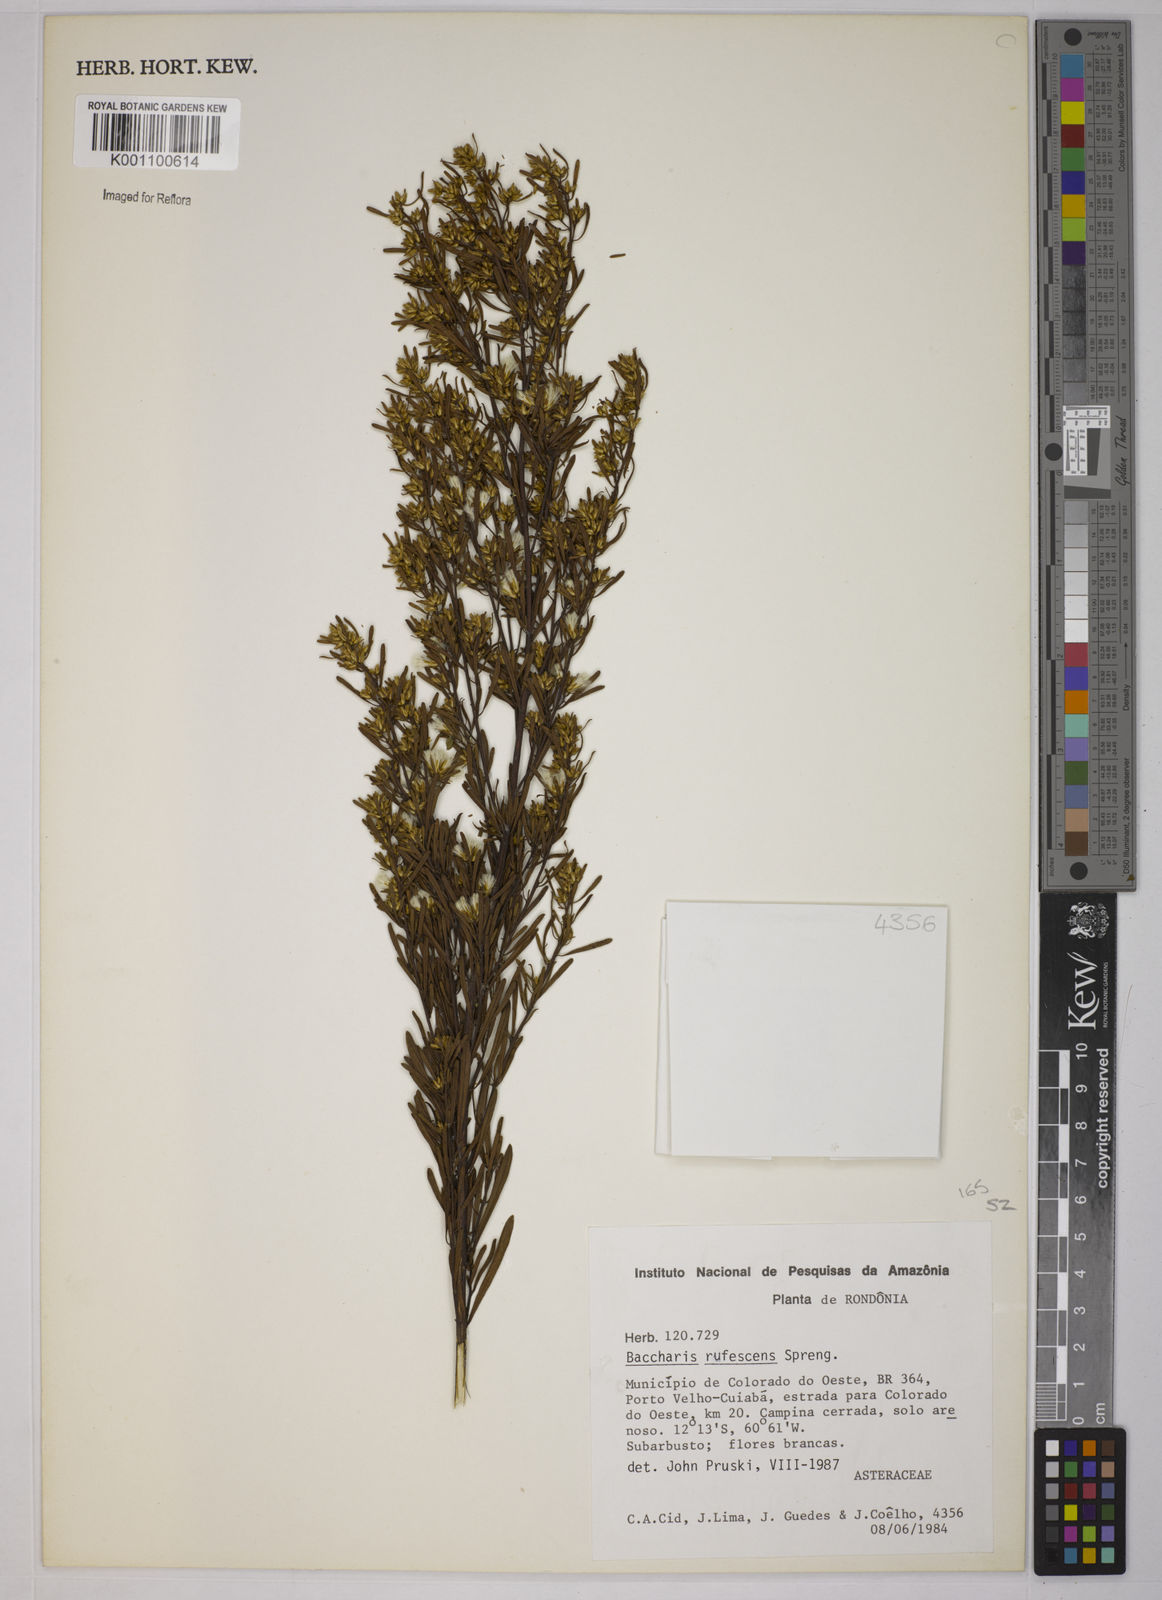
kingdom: Plantae
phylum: Tracheophyta
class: Magnoliopsida
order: Asterales
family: Asteraceae
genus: Baccharis
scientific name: Baccharis rufescens
